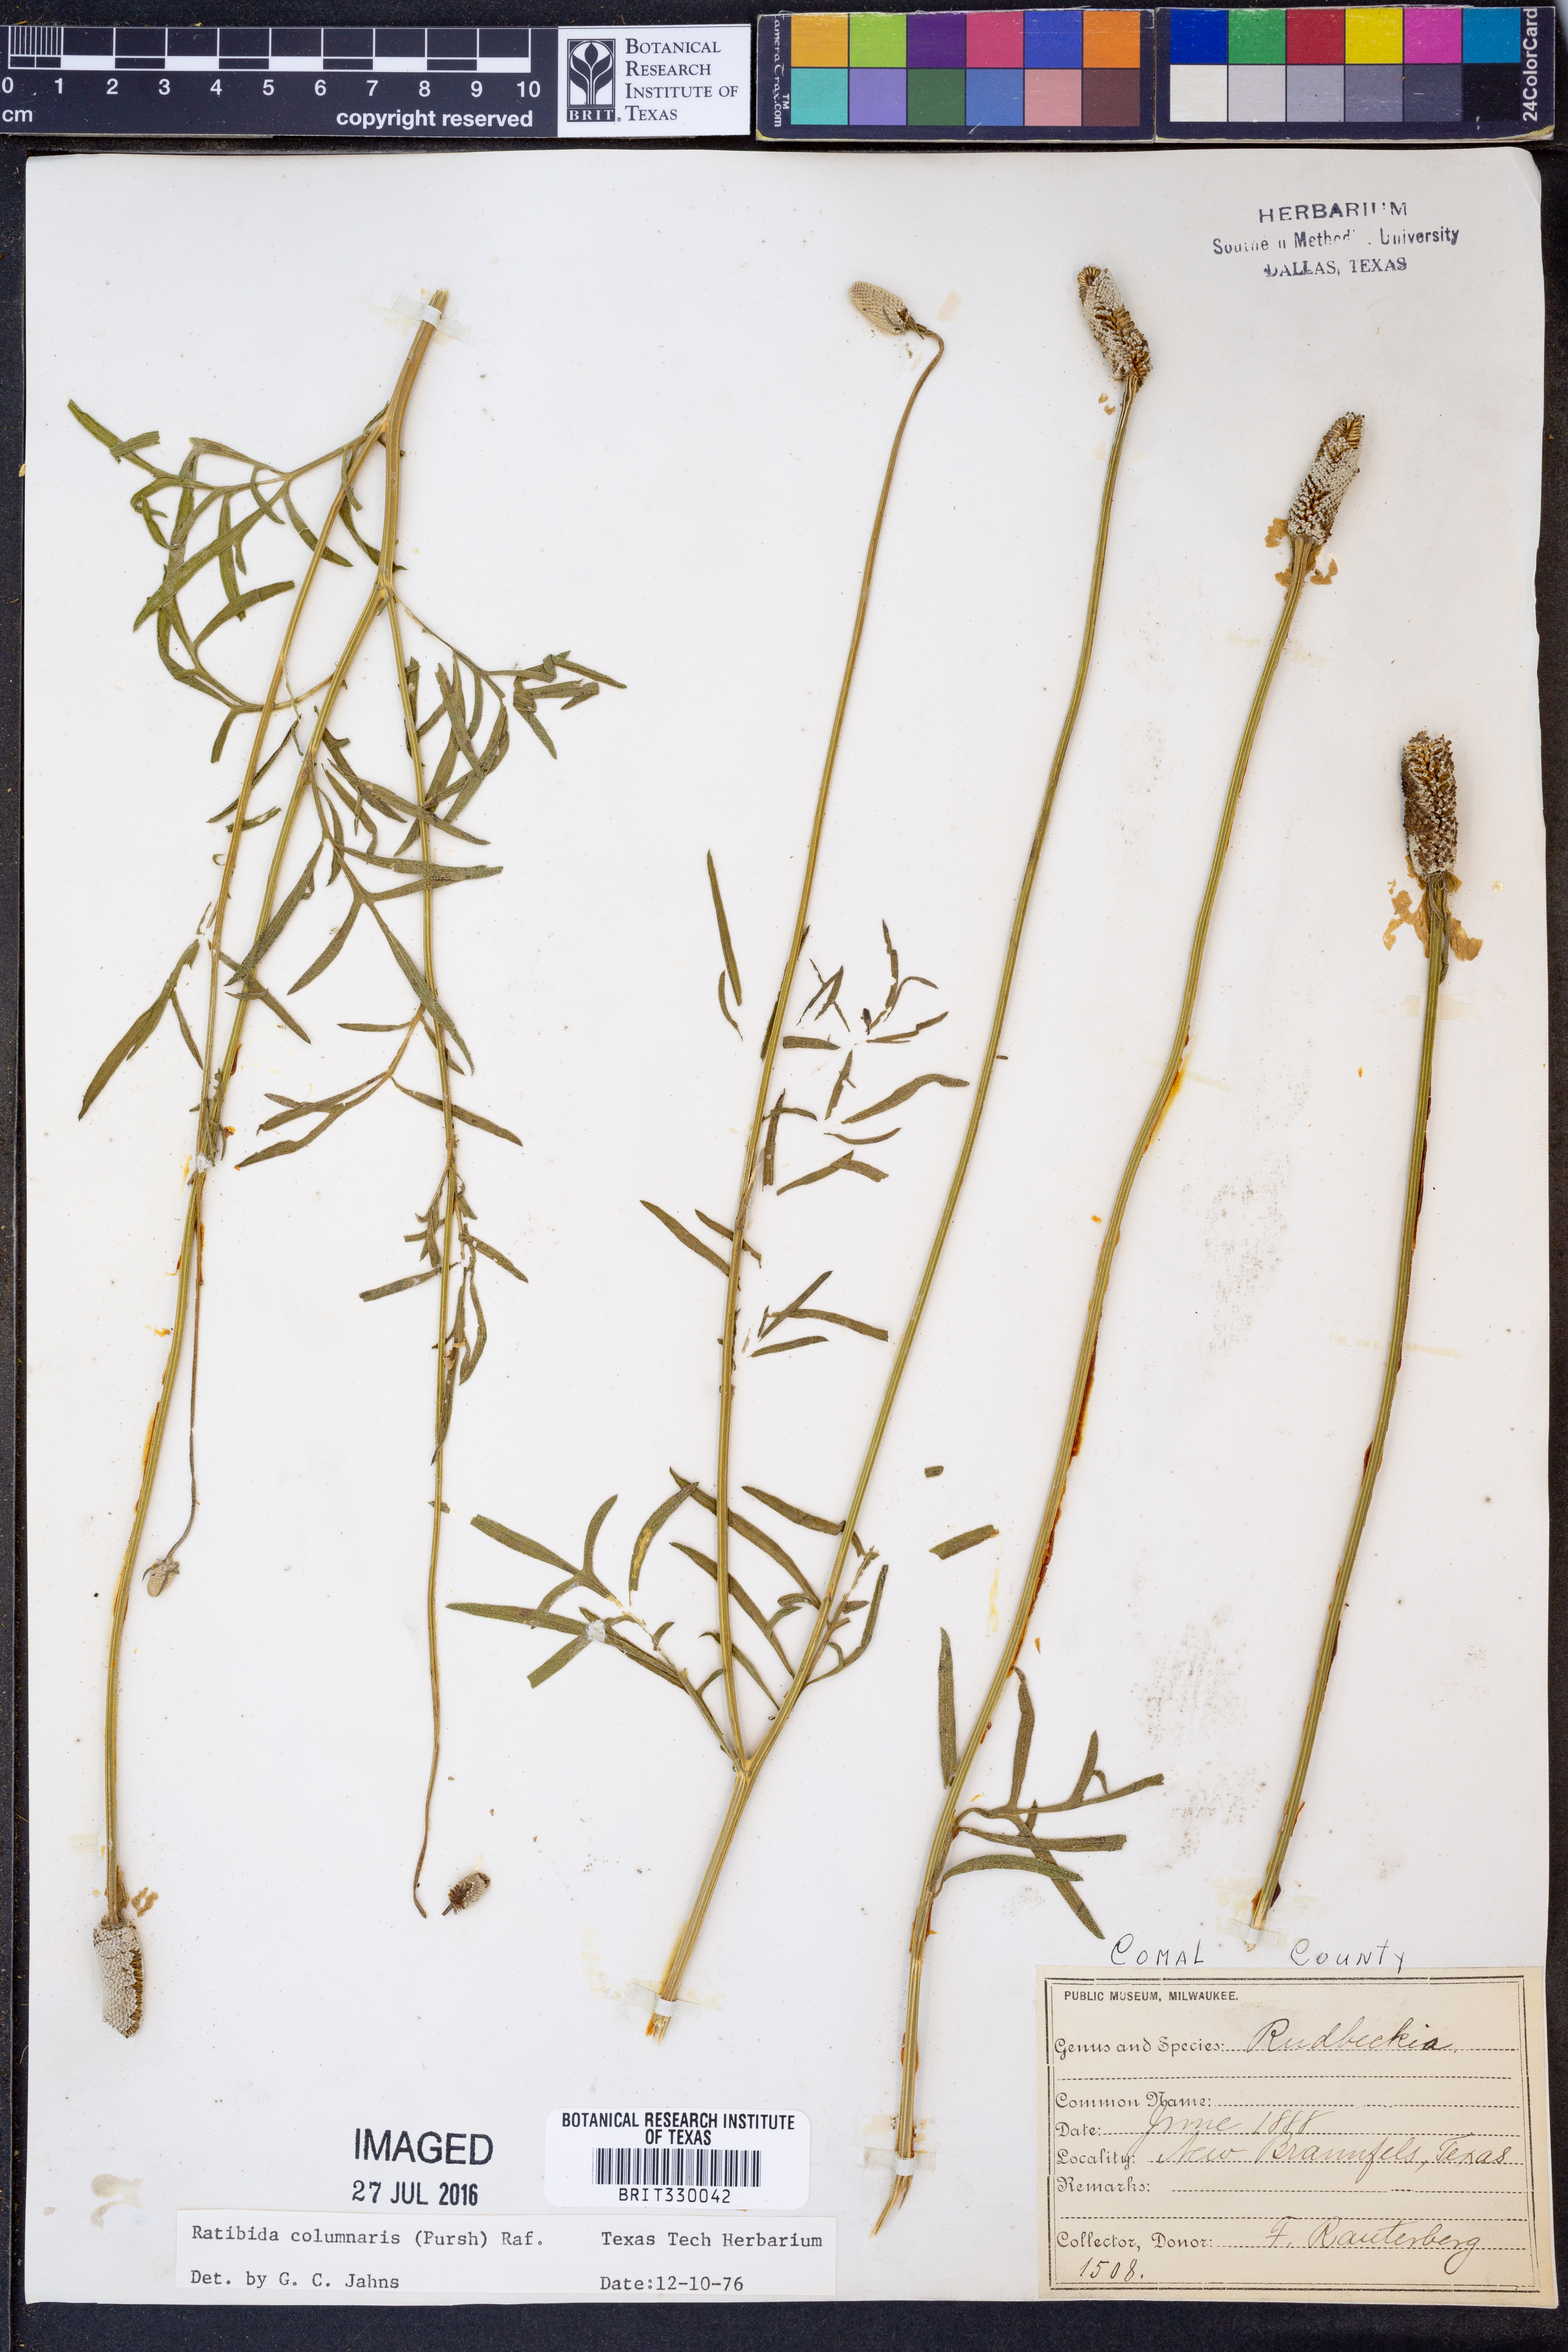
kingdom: Plantae
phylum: Tracheophyta
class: Magnoliopsida
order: Asterales
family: Asteraceae
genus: Ratibida
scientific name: Ratibida columnifera
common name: Prairie coneflower
